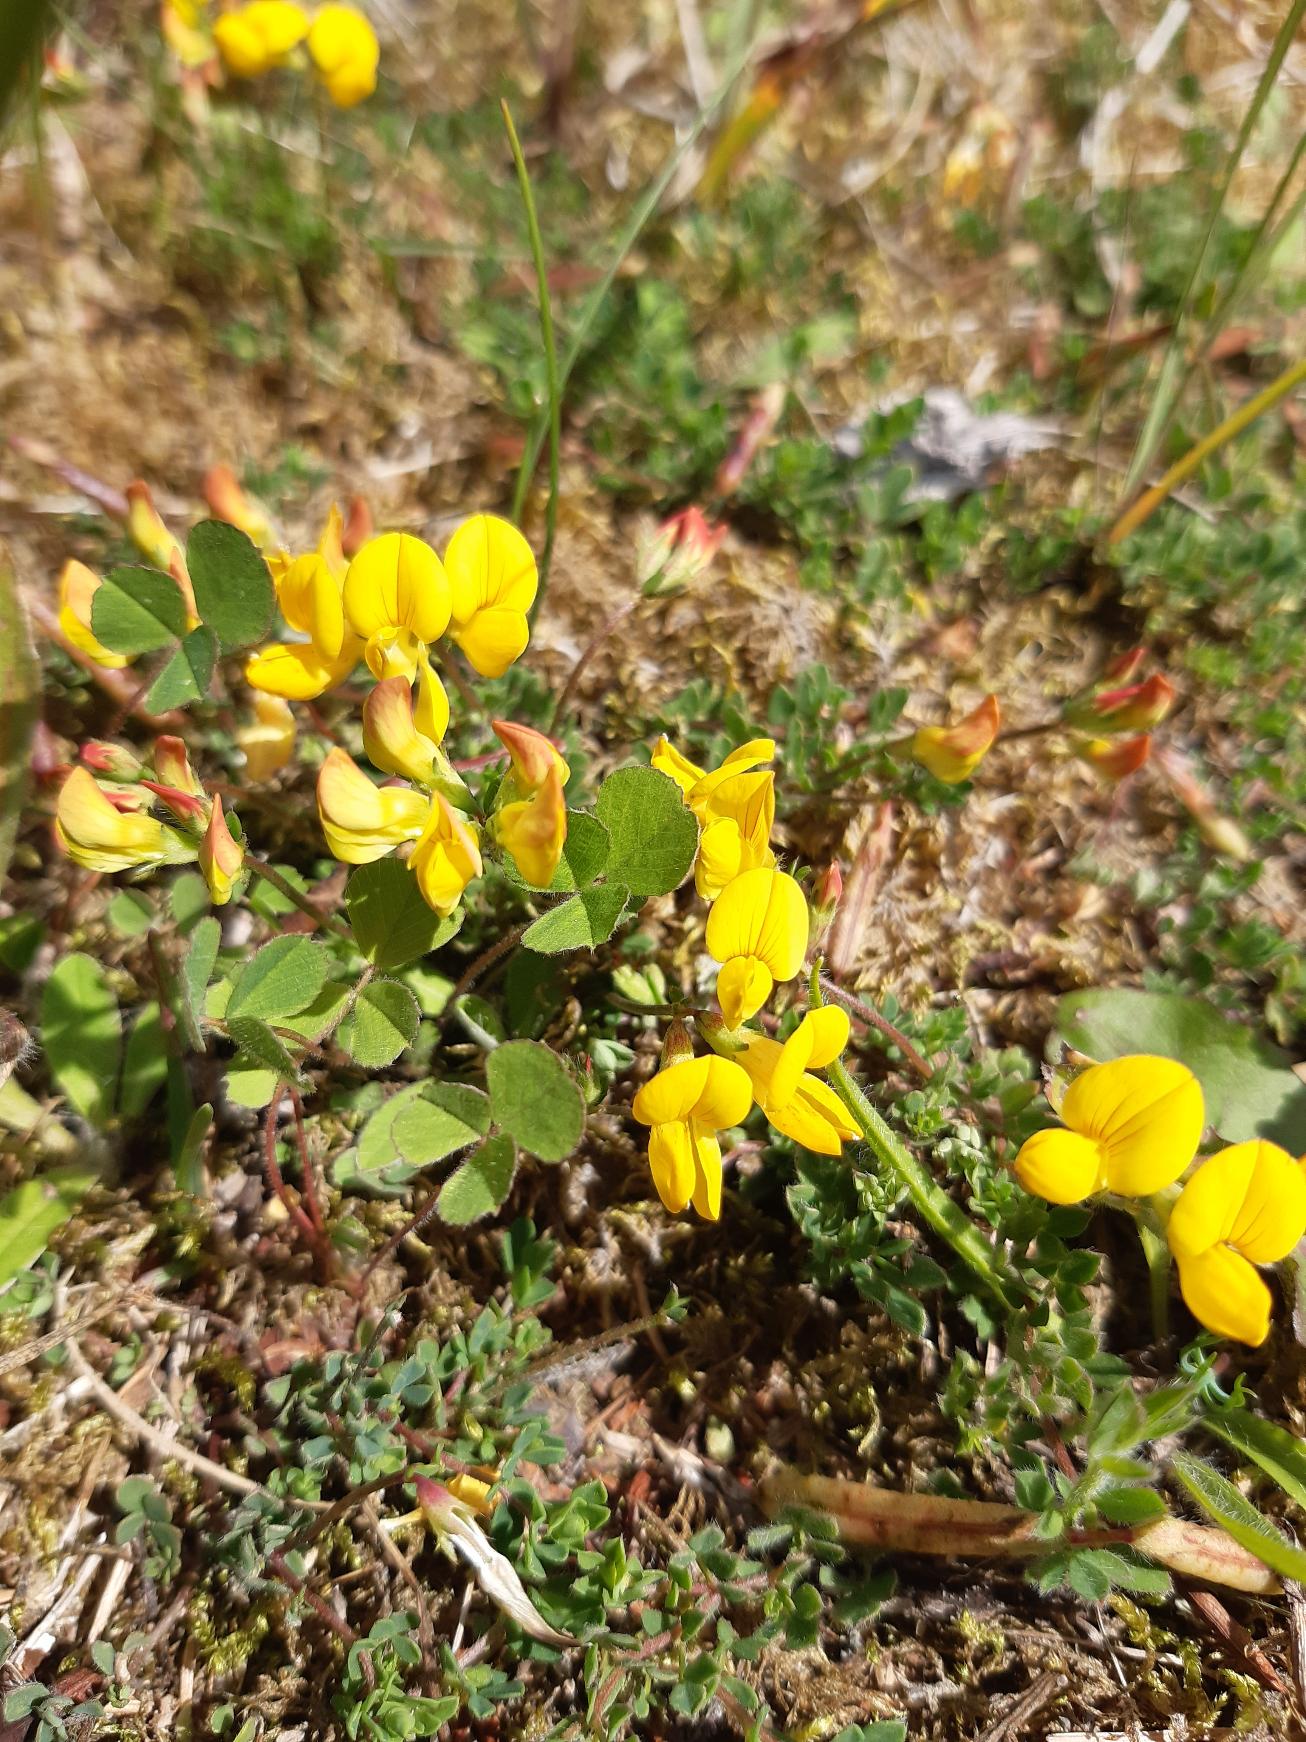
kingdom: Plantae
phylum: Tracheophyta
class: Magnoliopsida
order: Fabales
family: Fabaceae
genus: Lotus
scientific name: Lotus corniculatus
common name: Almindelig kællingetand
